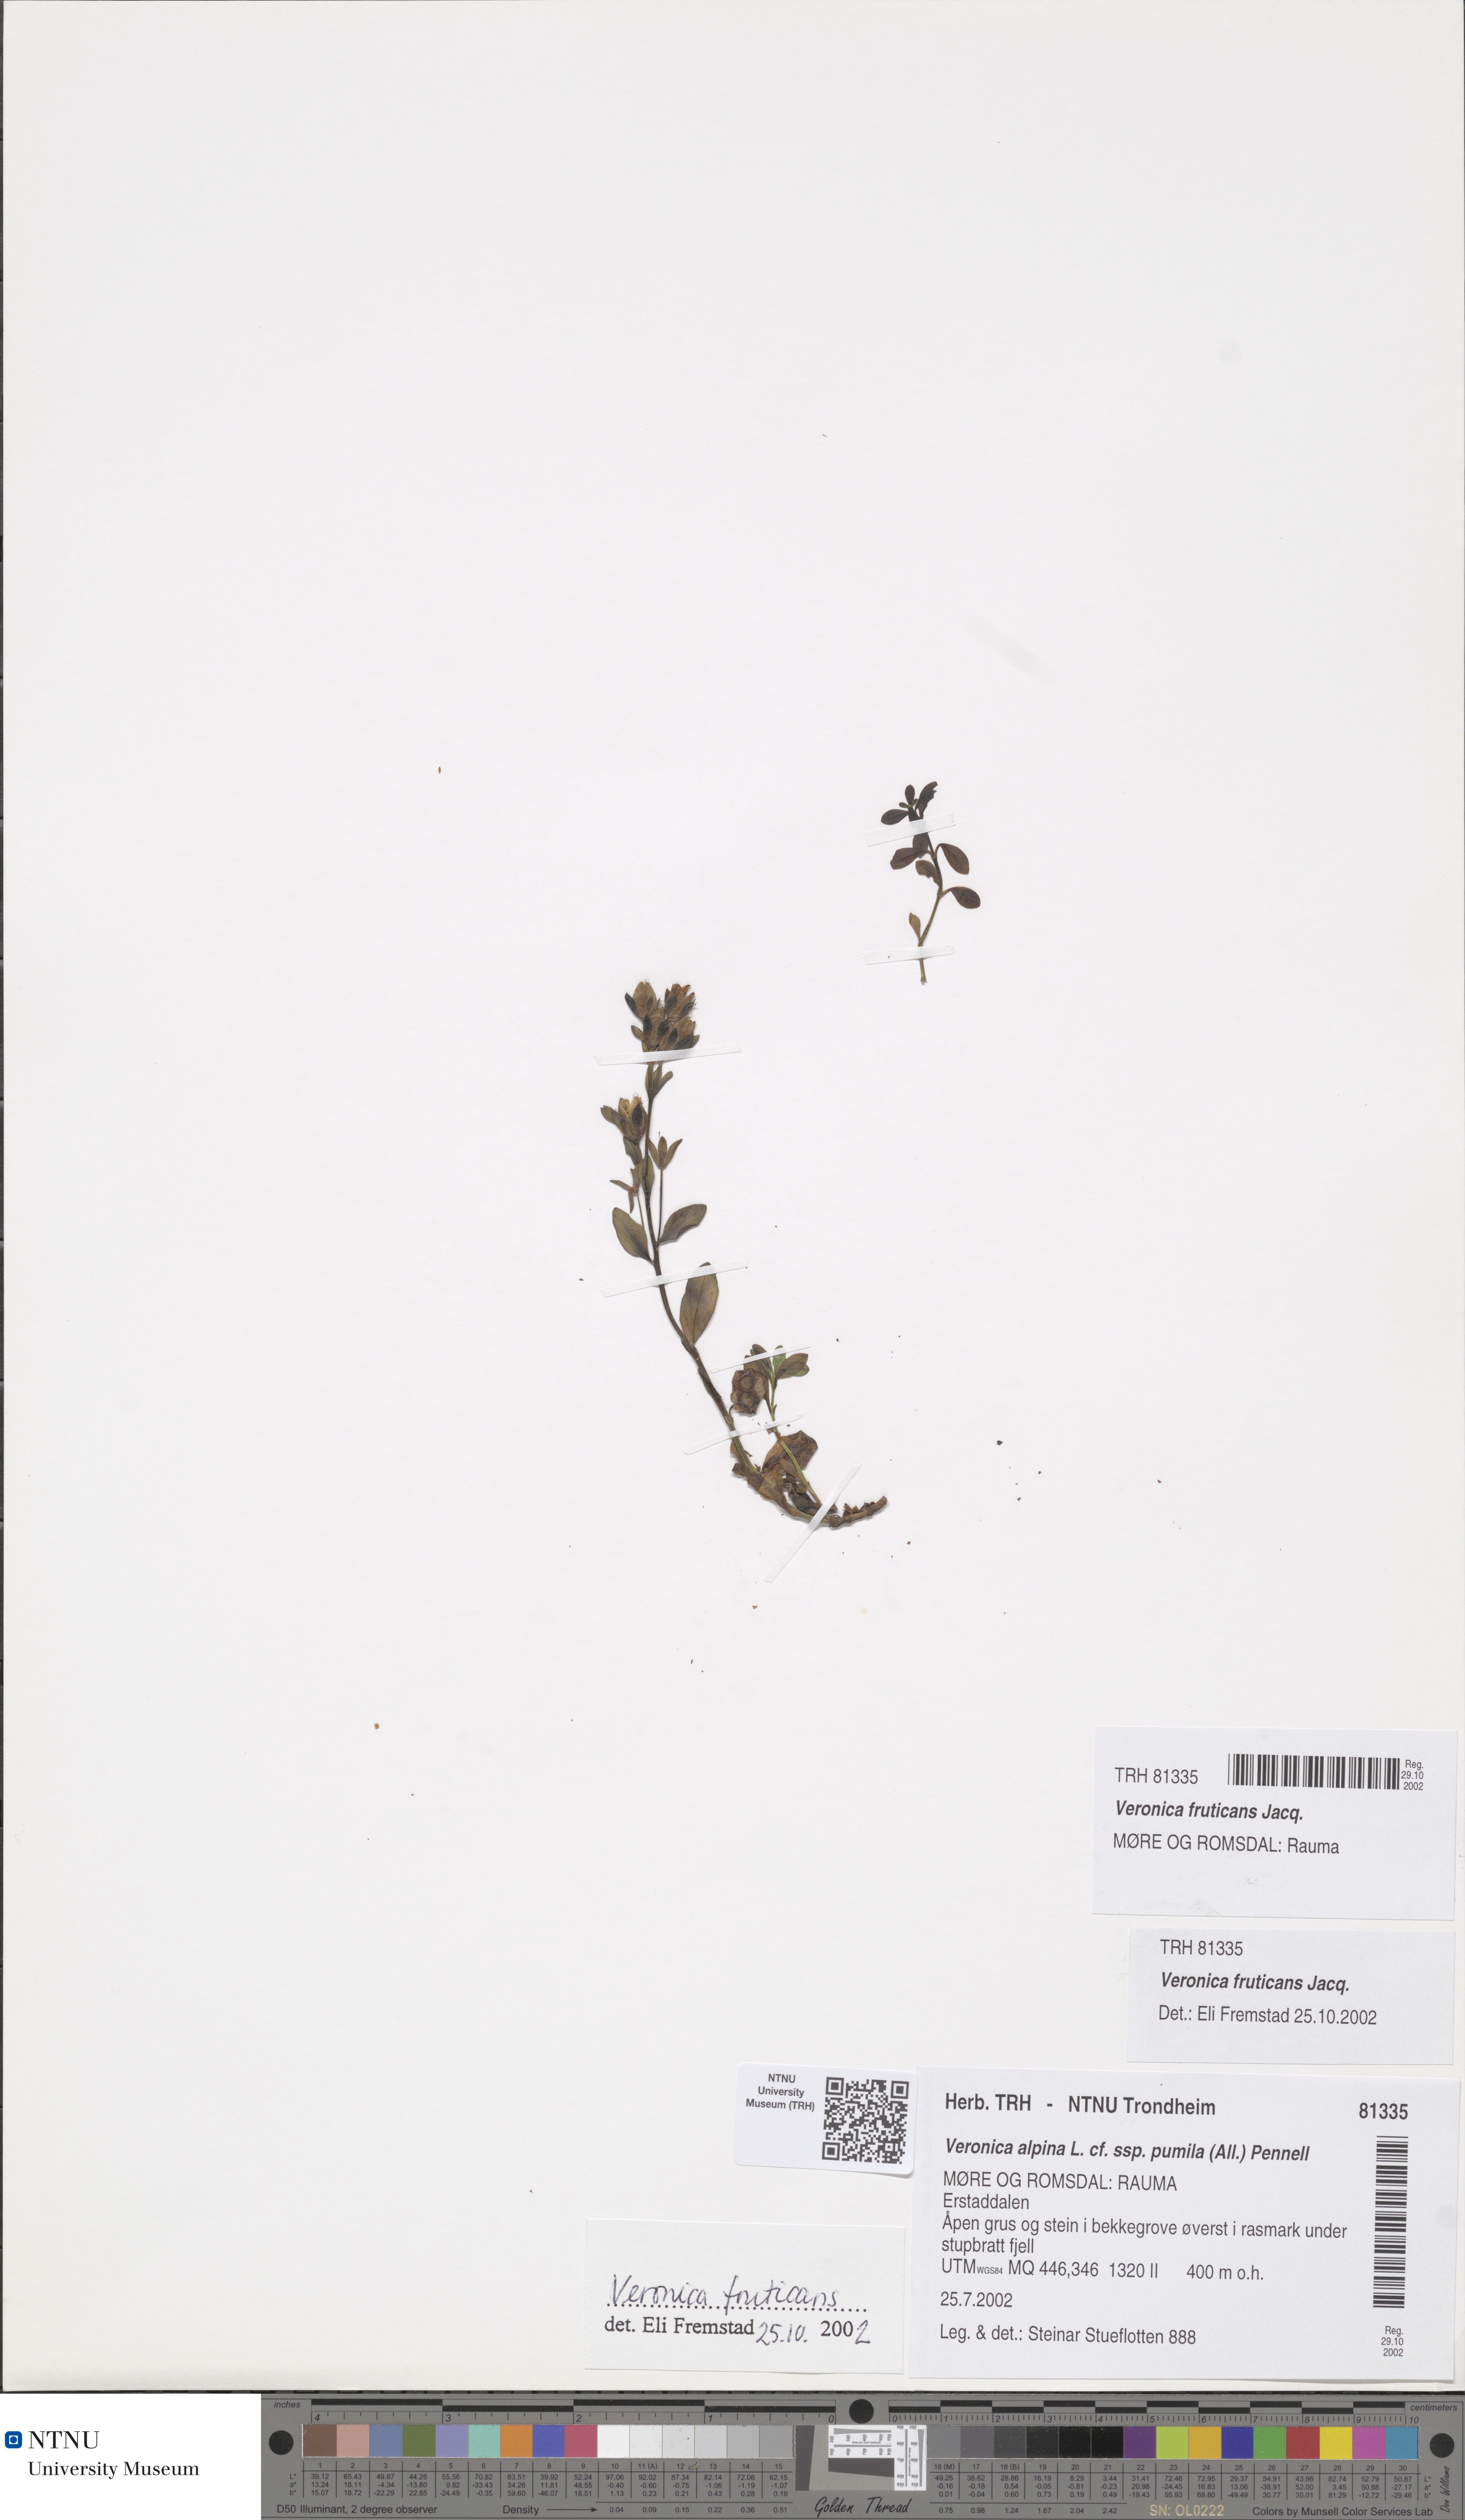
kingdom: Plantae
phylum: Tracheophyta
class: Magnoliopsida
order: Lamiales
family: Plantaginaceae
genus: Veronica
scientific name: Veronica fruticans
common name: Rock speedwell
